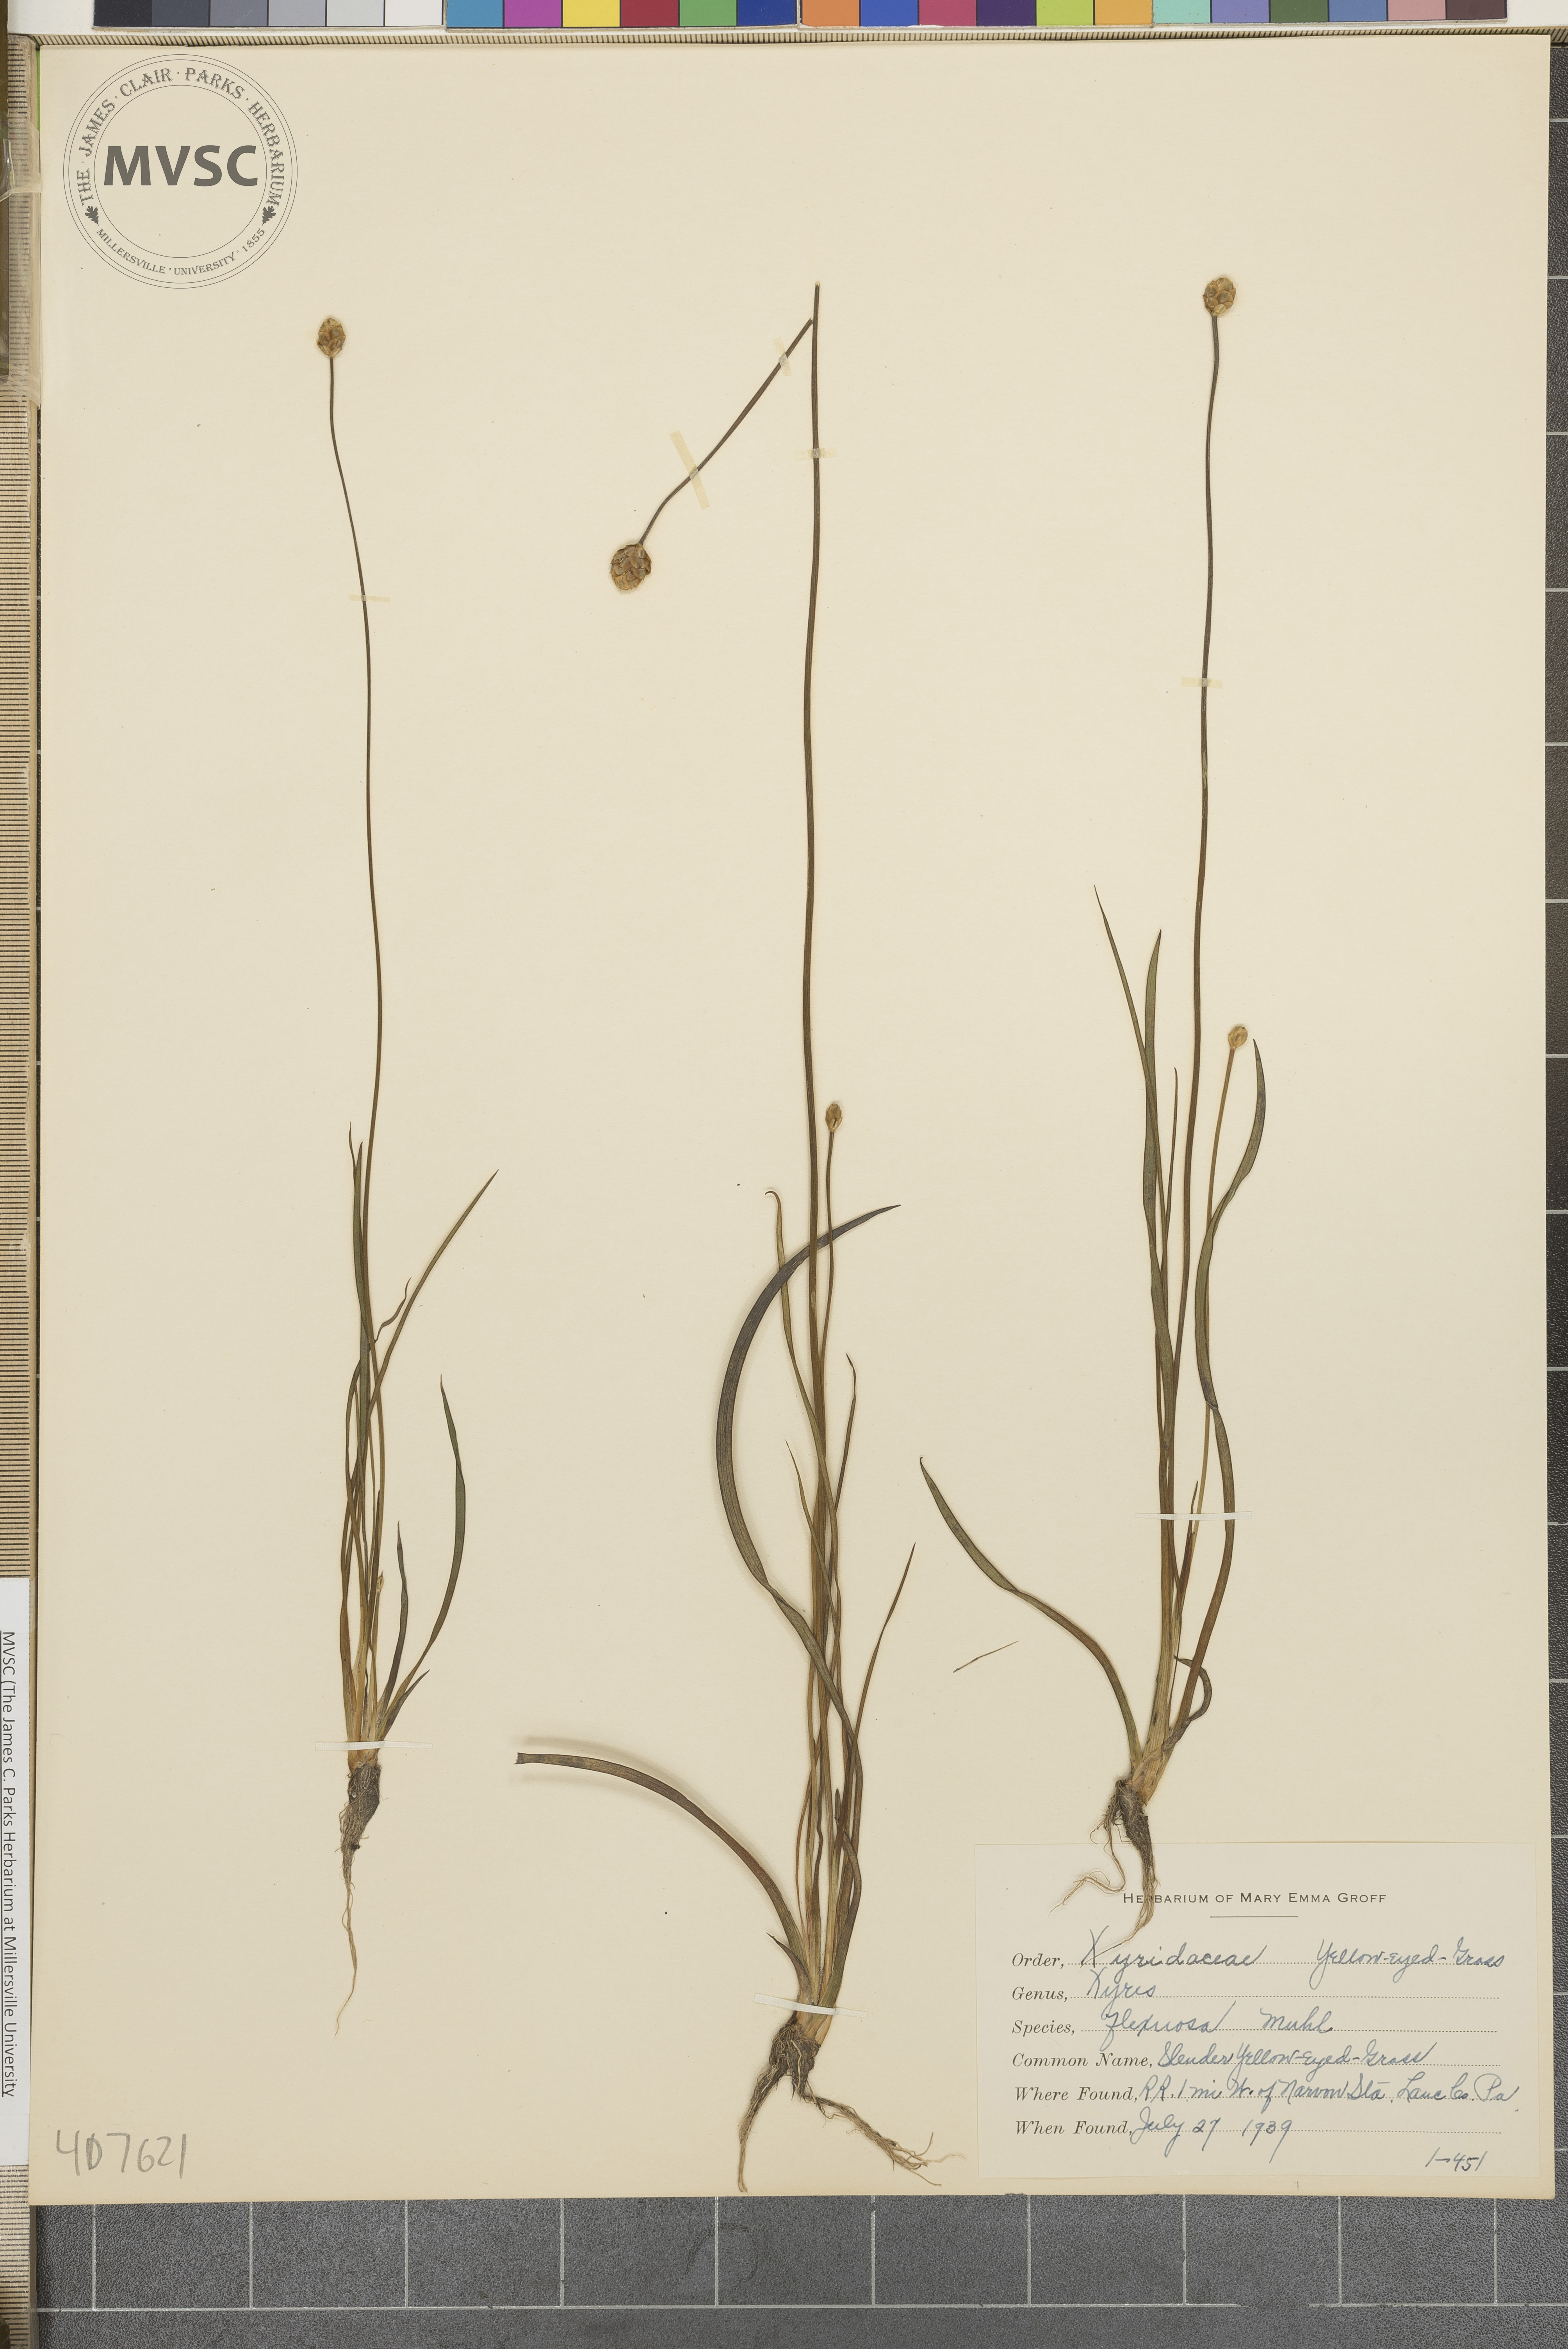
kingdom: Plantae
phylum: Tracheophyta
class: Liliopsida
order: Poales
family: Xyridaceae
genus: Xyris
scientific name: Xyris torta
